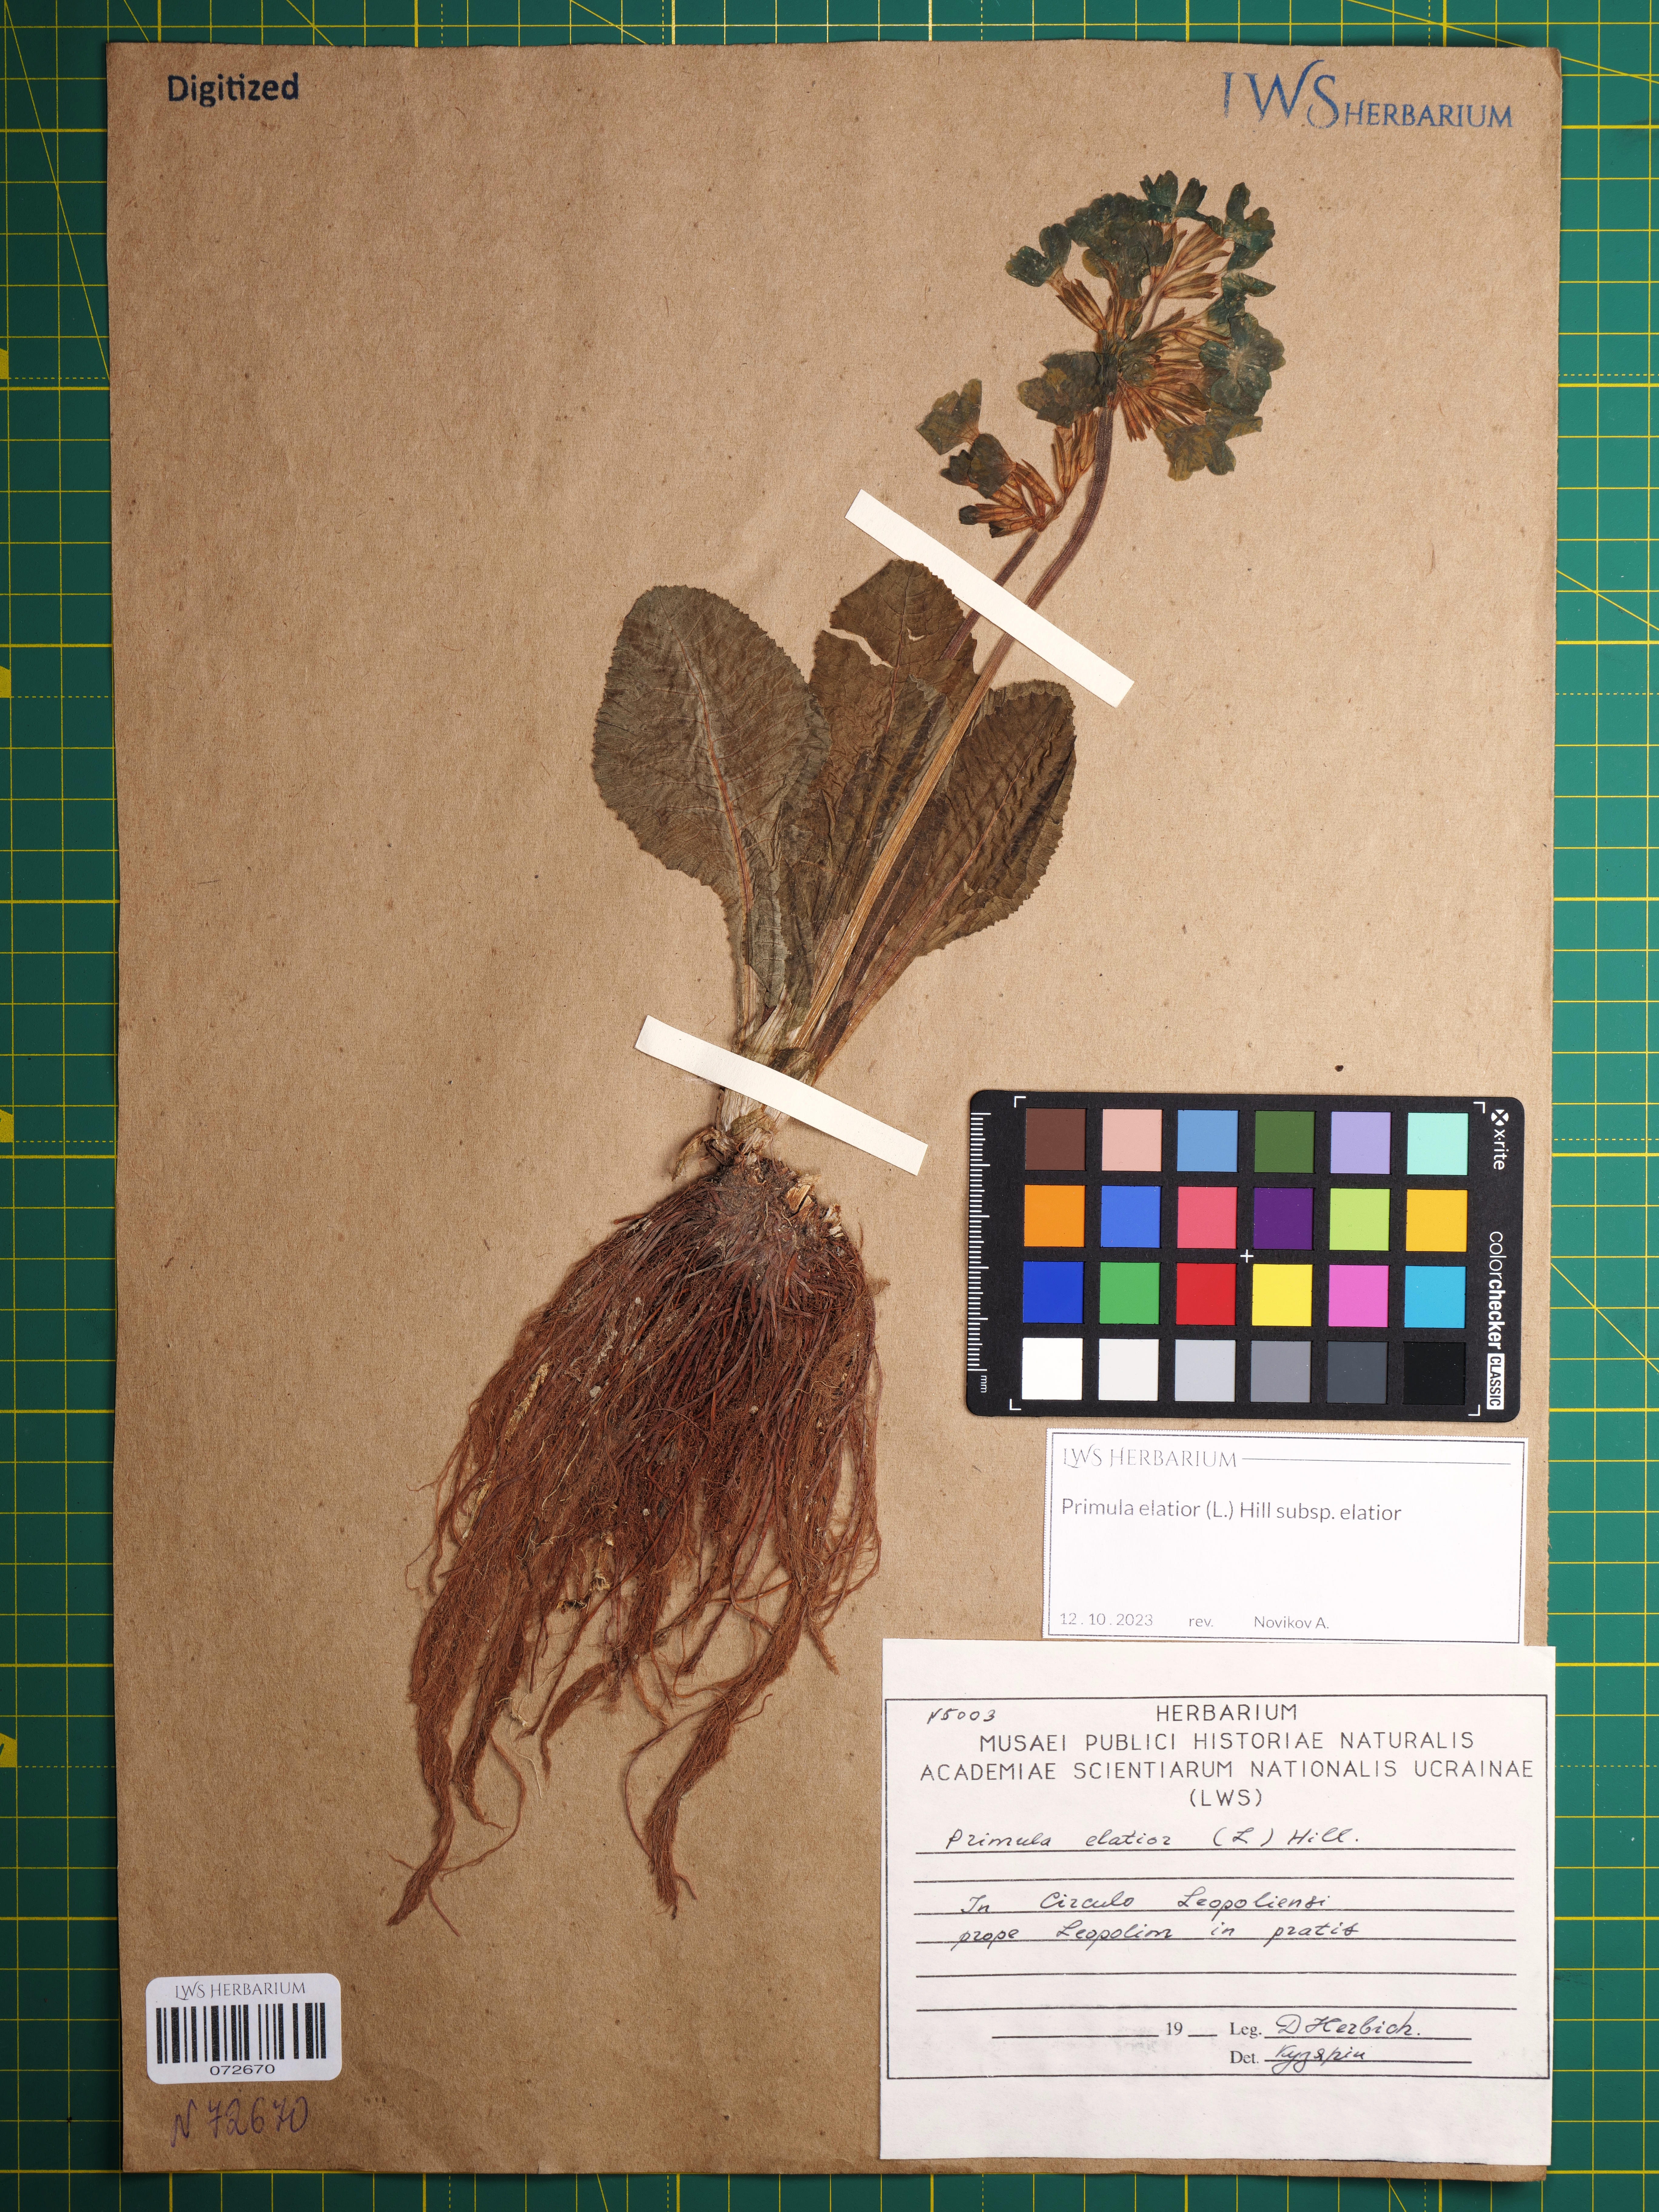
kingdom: Plantae
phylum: Tracheophyta
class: Magnoliopsida
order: Ericales
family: Primulaceae
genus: Primula
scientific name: Primula elatior
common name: Oxlip
